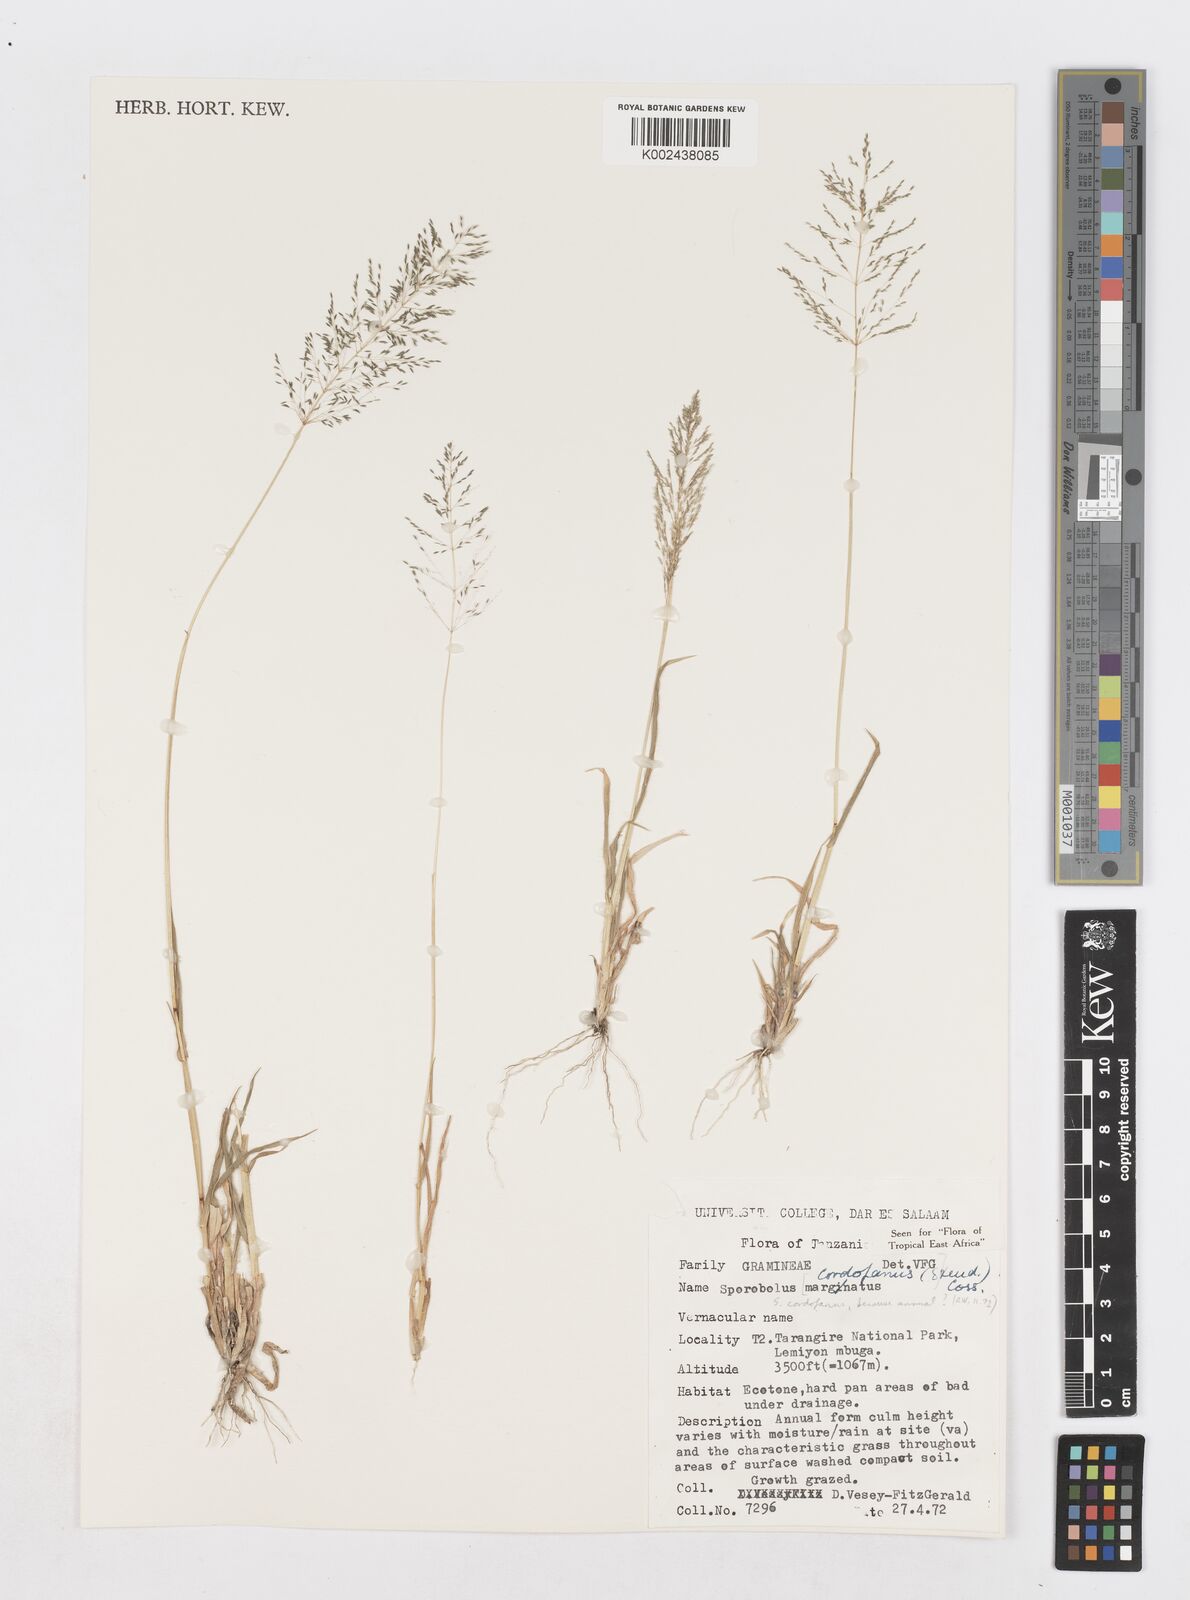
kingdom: Plantae
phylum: Tracheophyta
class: Liliopsida
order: Poales
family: Poaceae
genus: Sporobolus
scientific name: Sporobolus cordofanus
